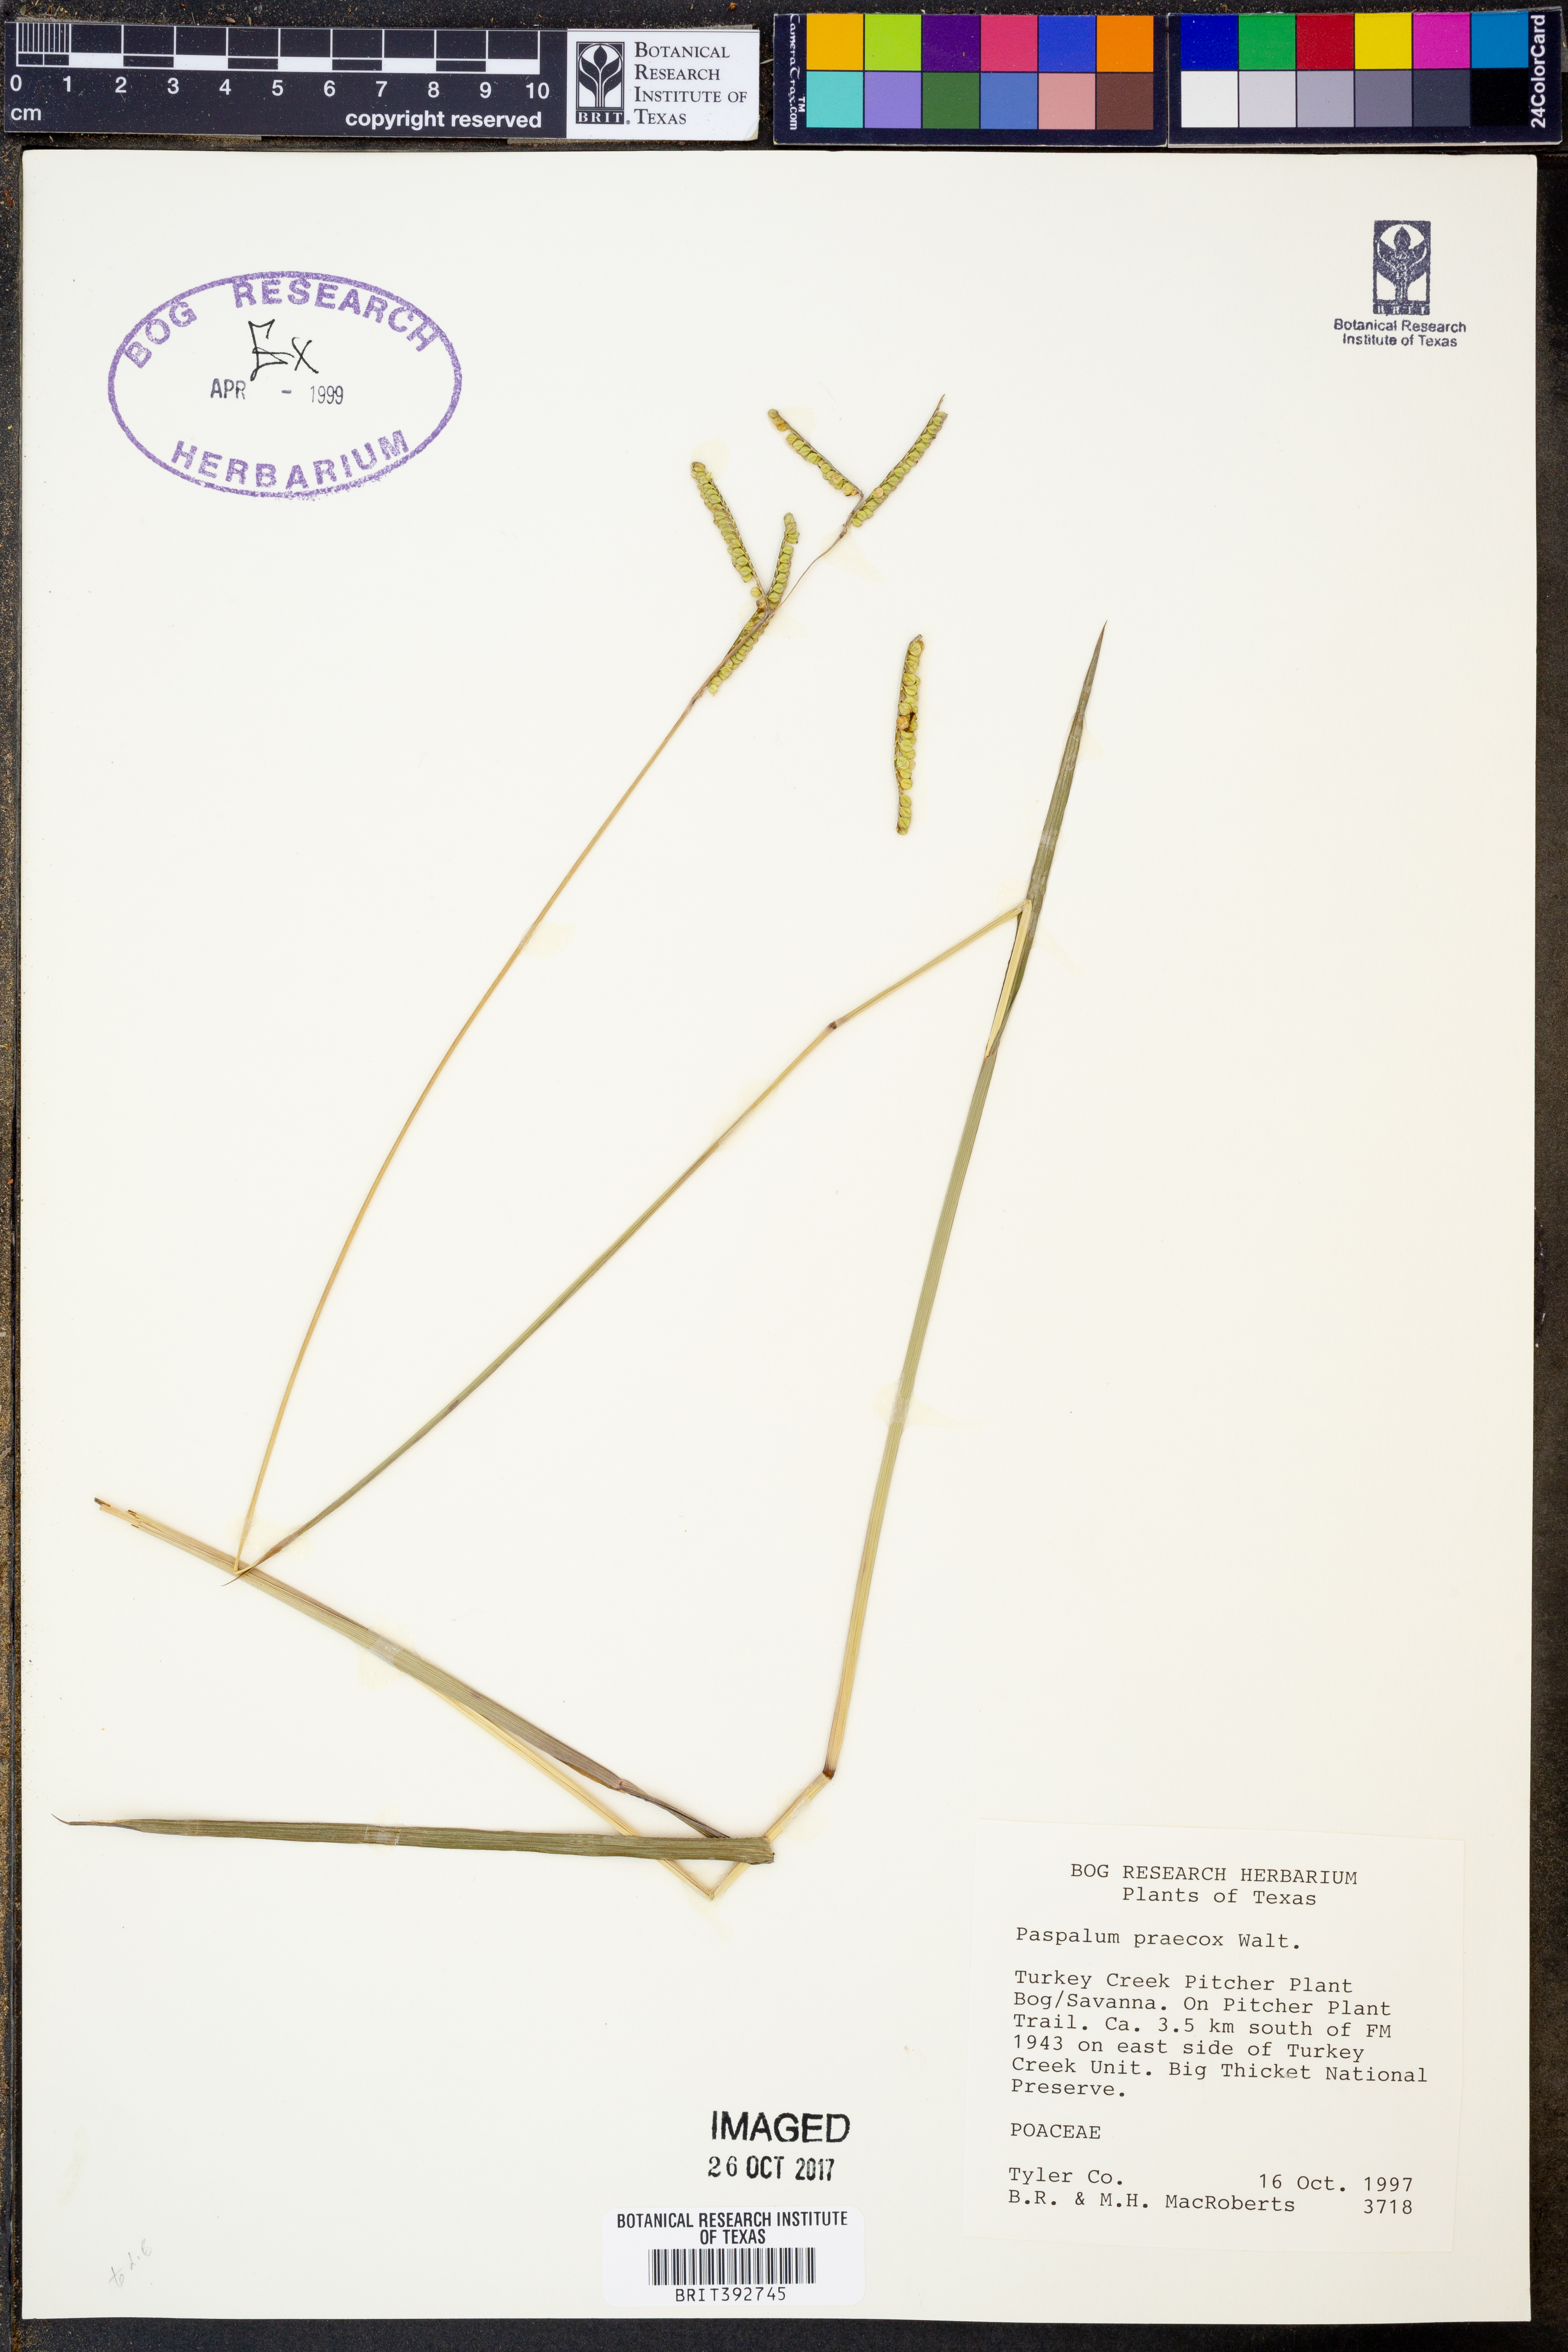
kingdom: Plantae
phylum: Tracheophyta
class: Liliopsida
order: Poales
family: Poaceae
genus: Paspalum
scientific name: Paspalum praecox
